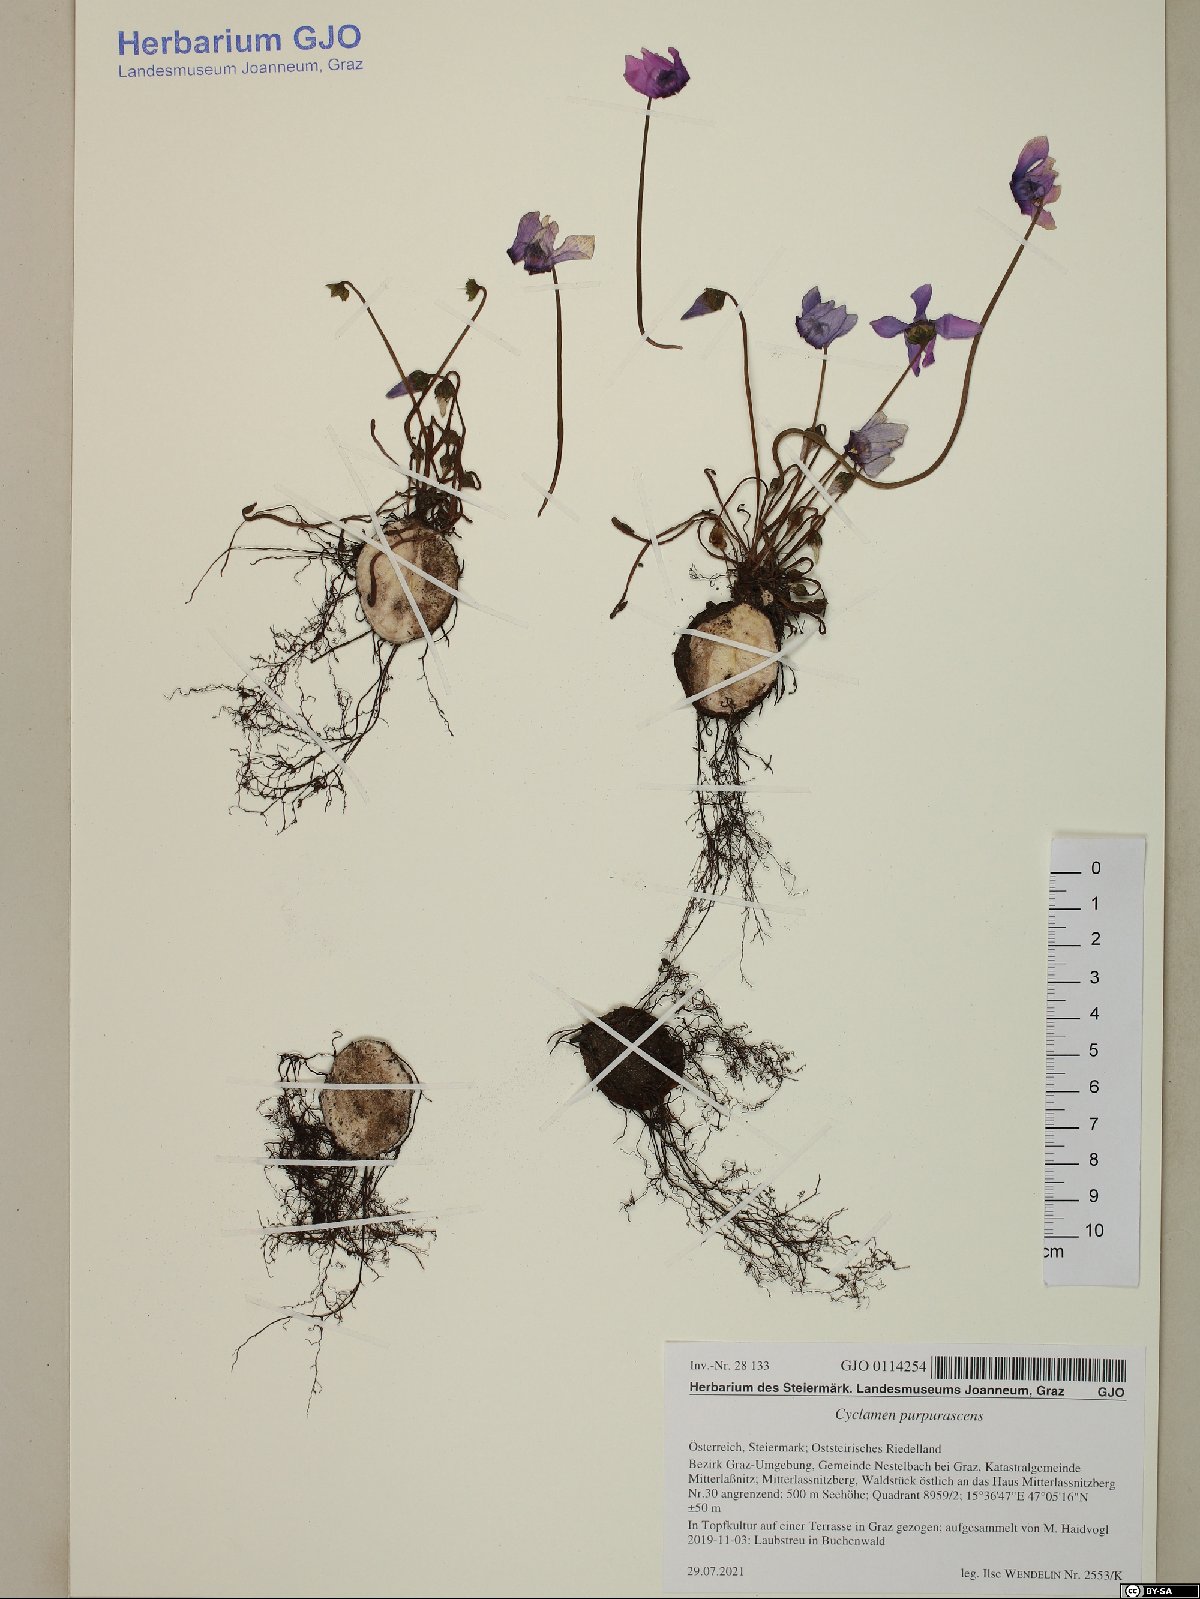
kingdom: Plantae
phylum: Tracheophyta
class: Magnoliopsida
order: Ericales
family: Primulaceae
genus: Cyclamen
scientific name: Cyclamen purpurascens
